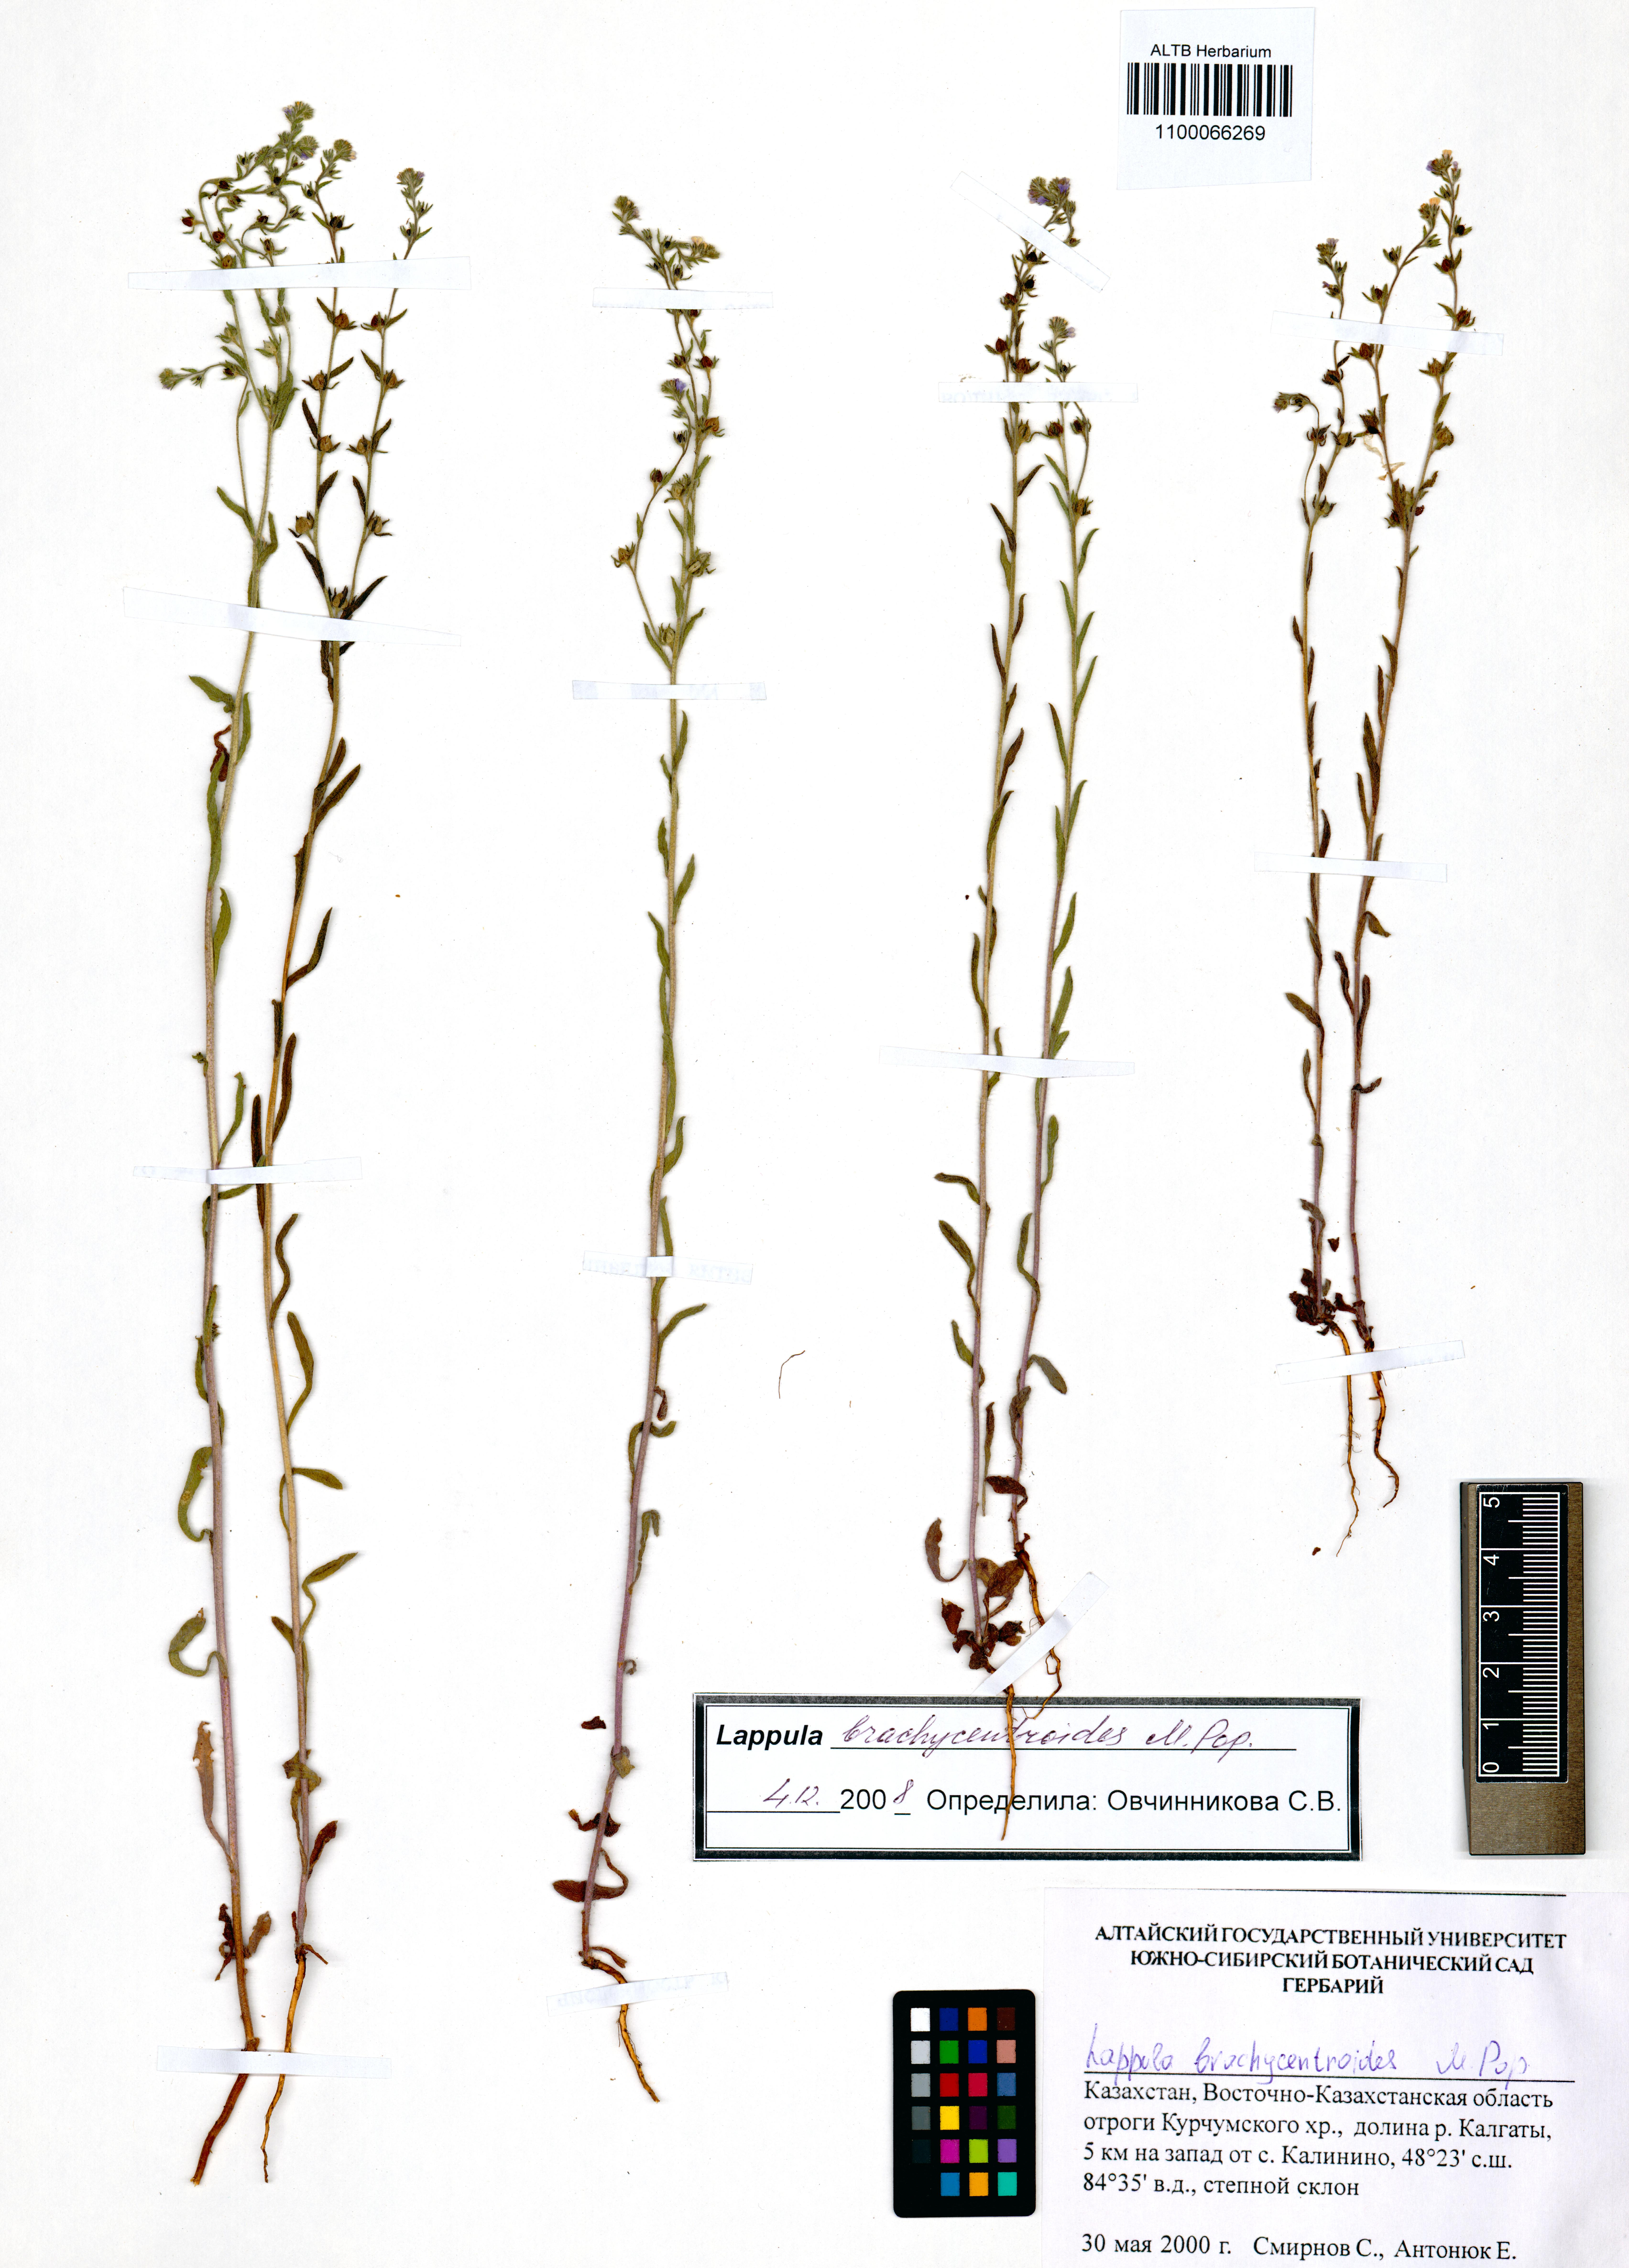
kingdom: Plantae
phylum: Tracheophyta
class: Magnoliopsida
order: Boraginales
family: Boraginaceae
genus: Lappula
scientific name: Lappula brachycentroides
